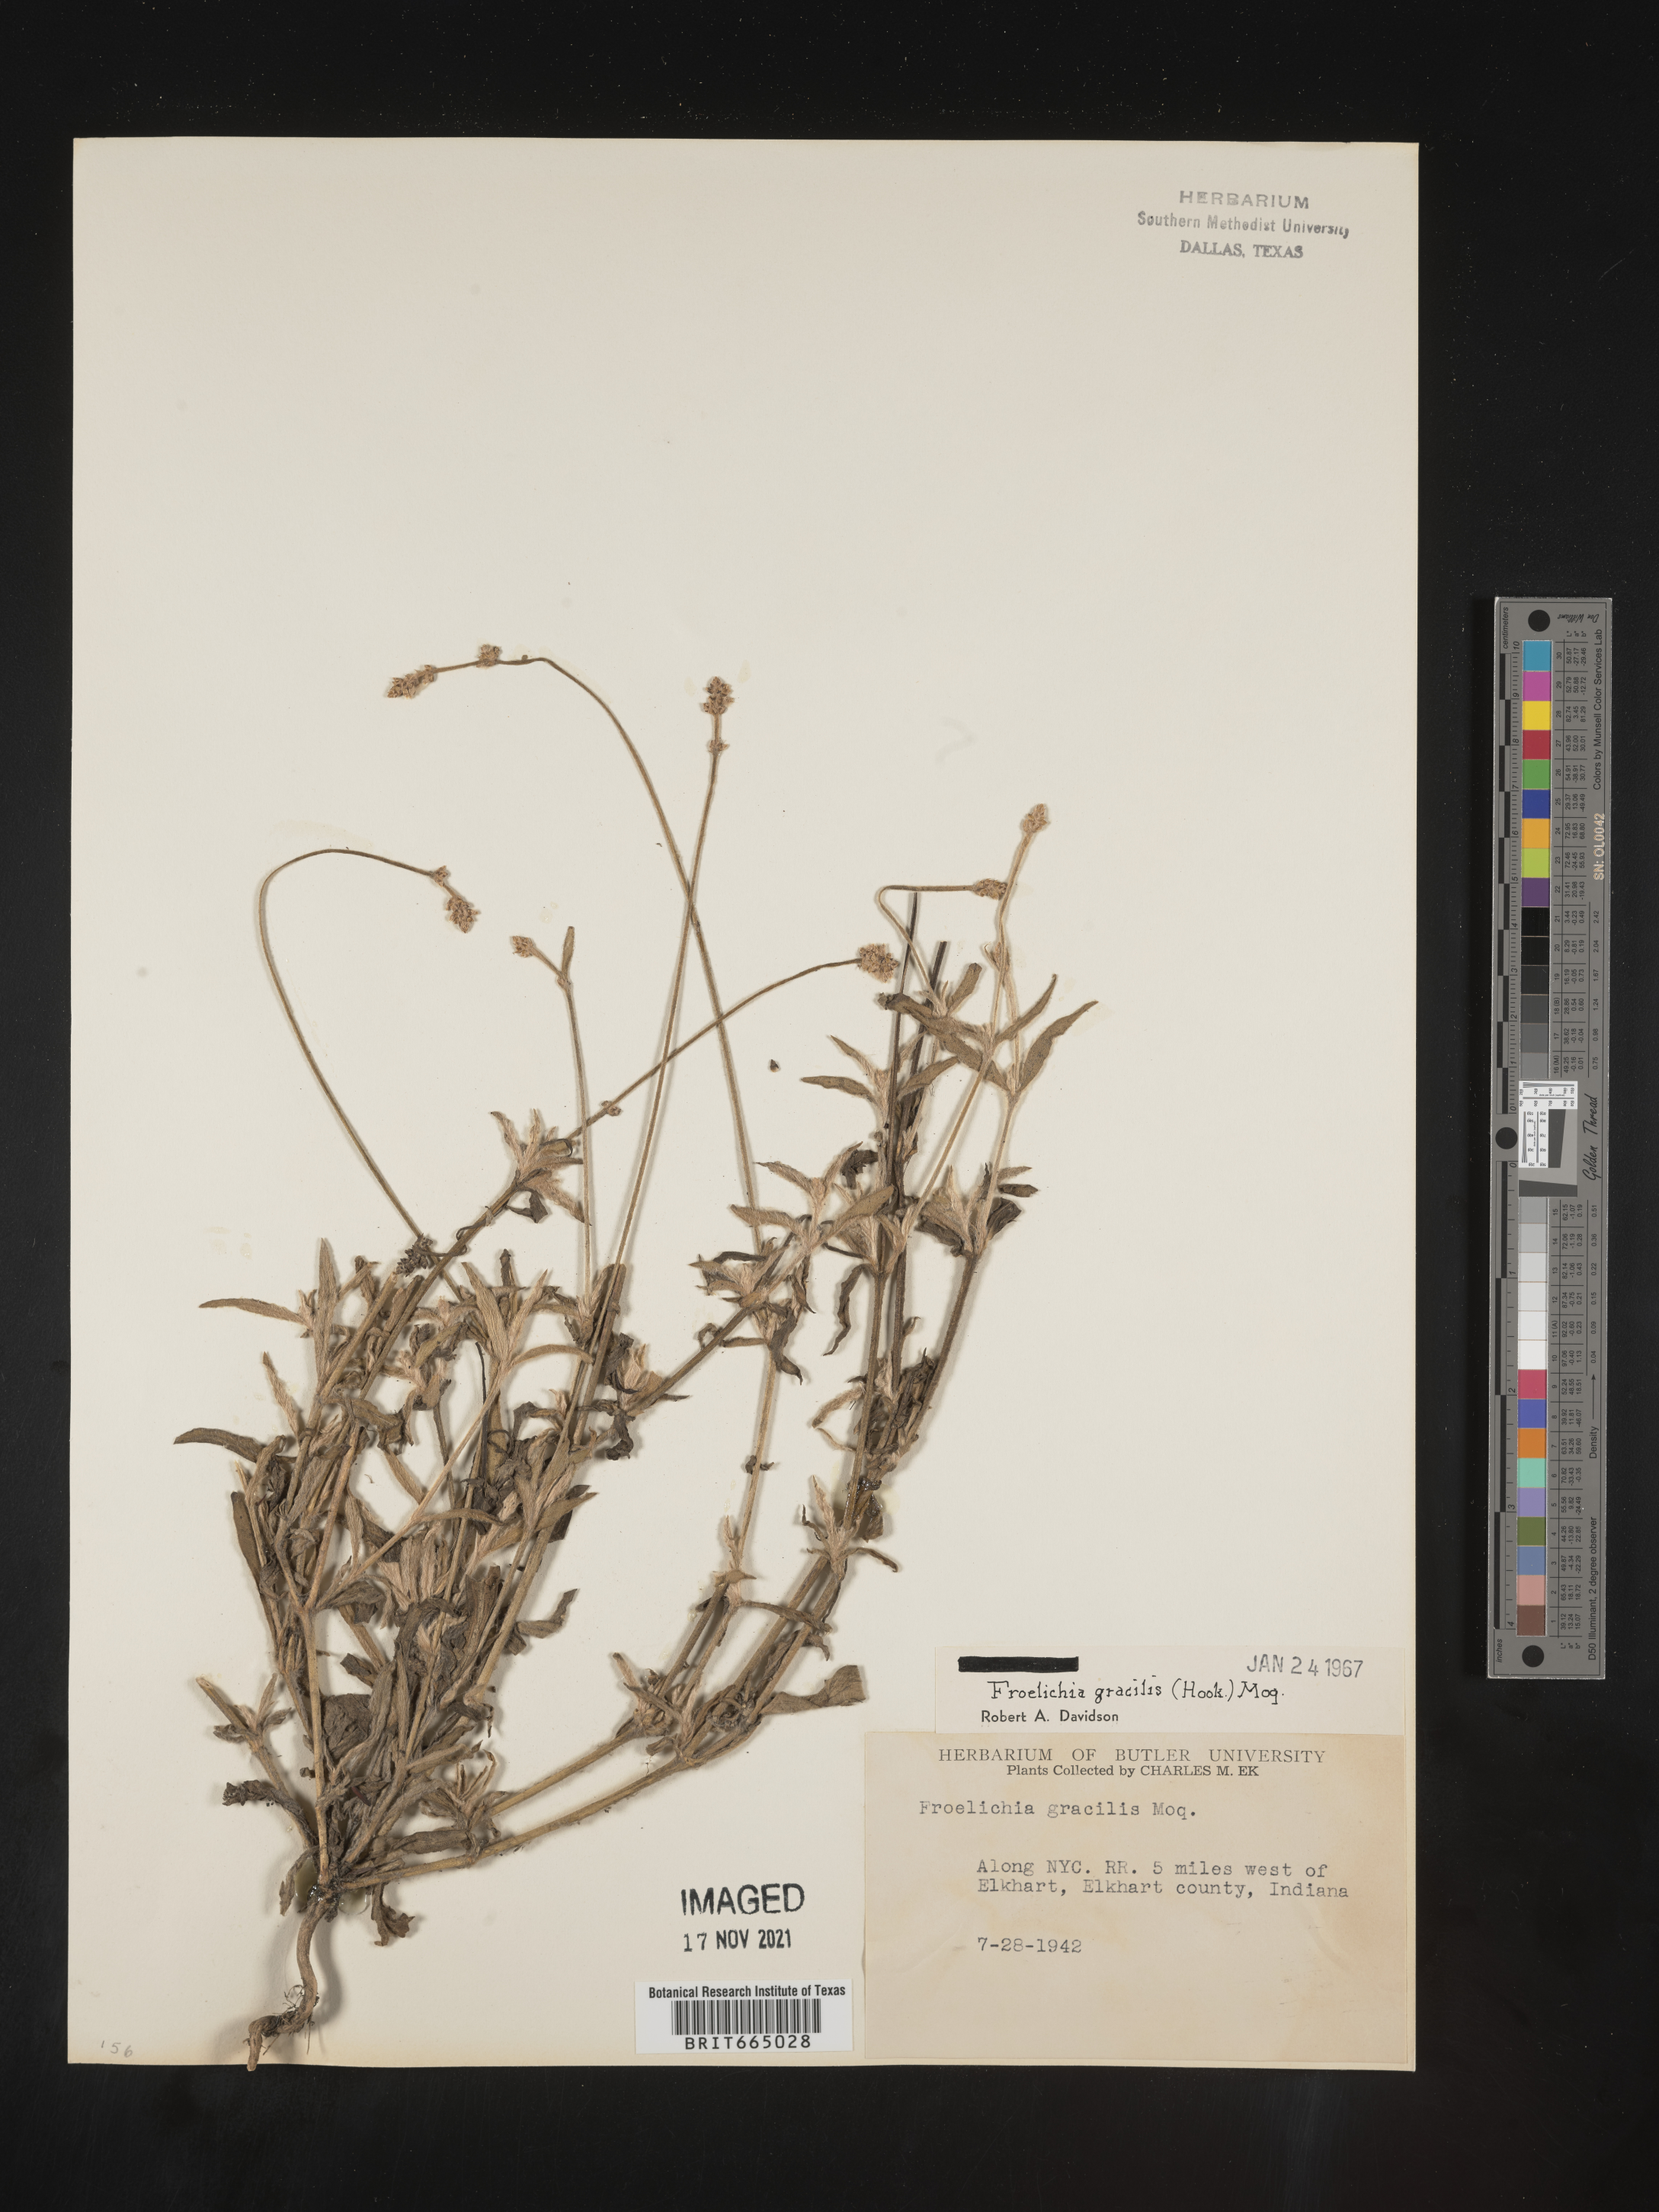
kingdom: Plantae
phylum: Tracheophyta
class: Magnoliopsida
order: Caryophyllales
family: Amaranthaceae
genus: Froelichia
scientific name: Froelichia gracilis
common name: Slender cottonweed
